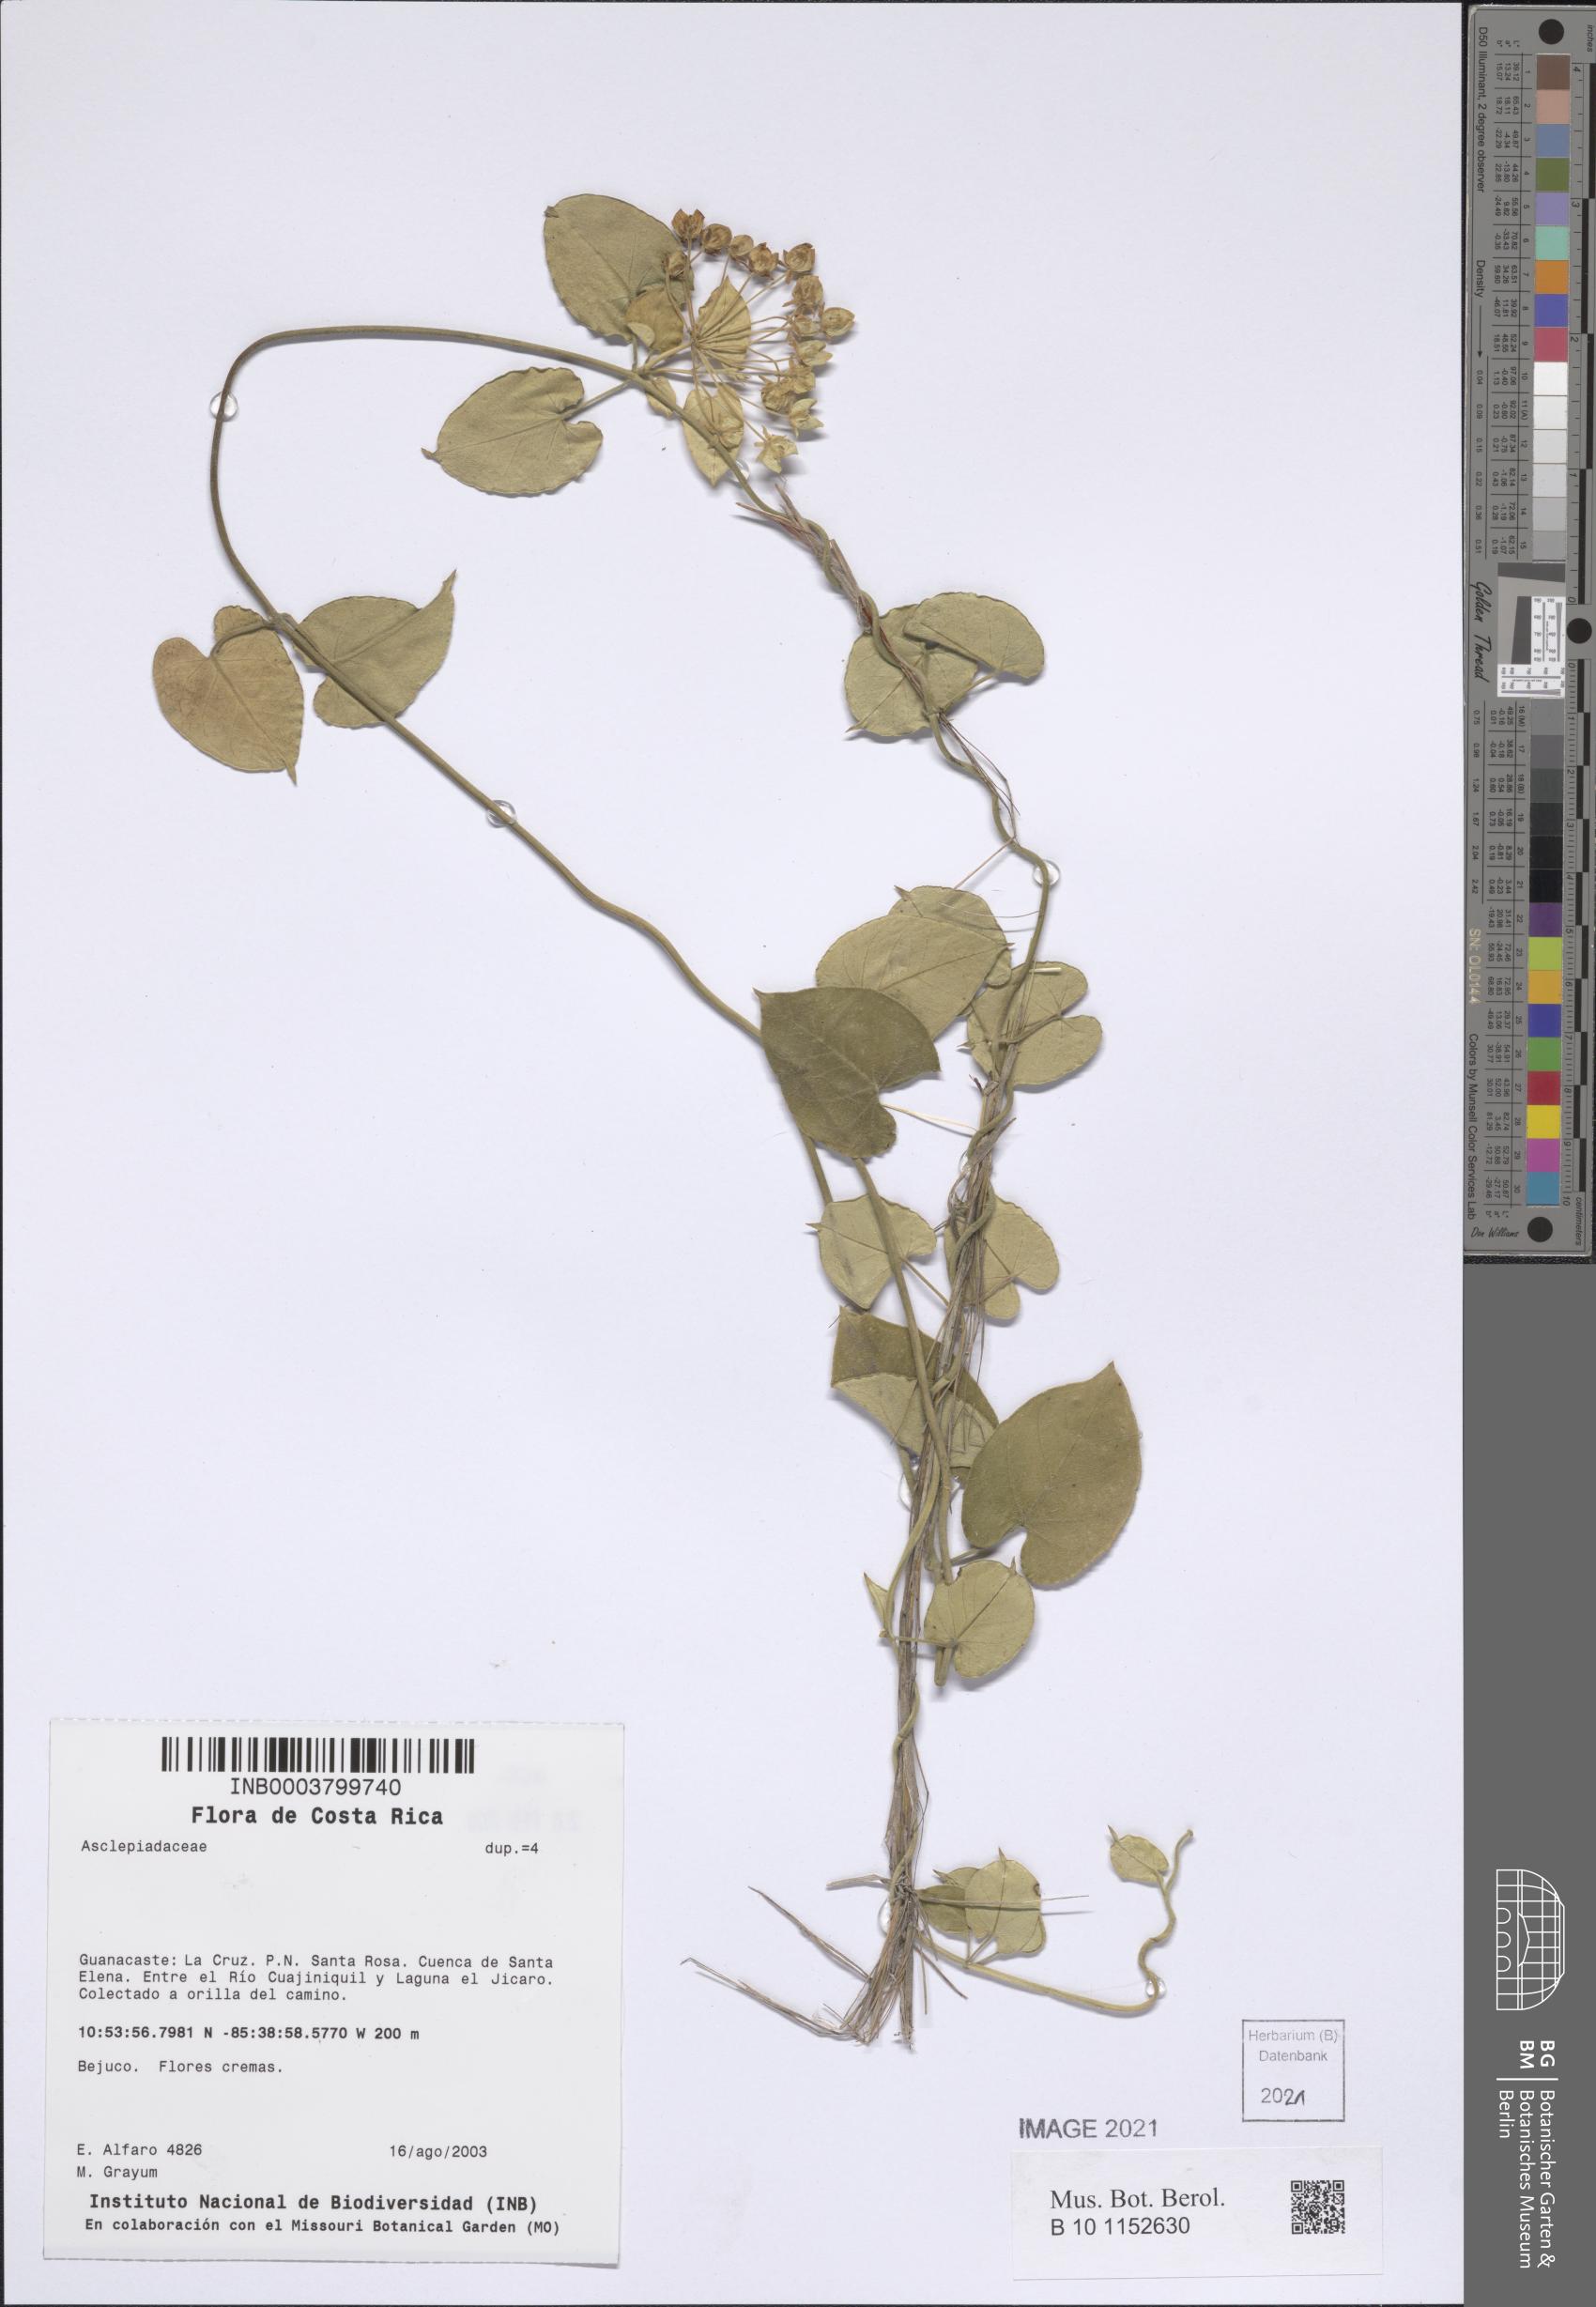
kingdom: Plantae
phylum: Tracheophyta
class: Magnoliopsida
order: Gentianales
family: Apocynaceae
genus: Funastrum
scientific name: Funastrum lindenianum
